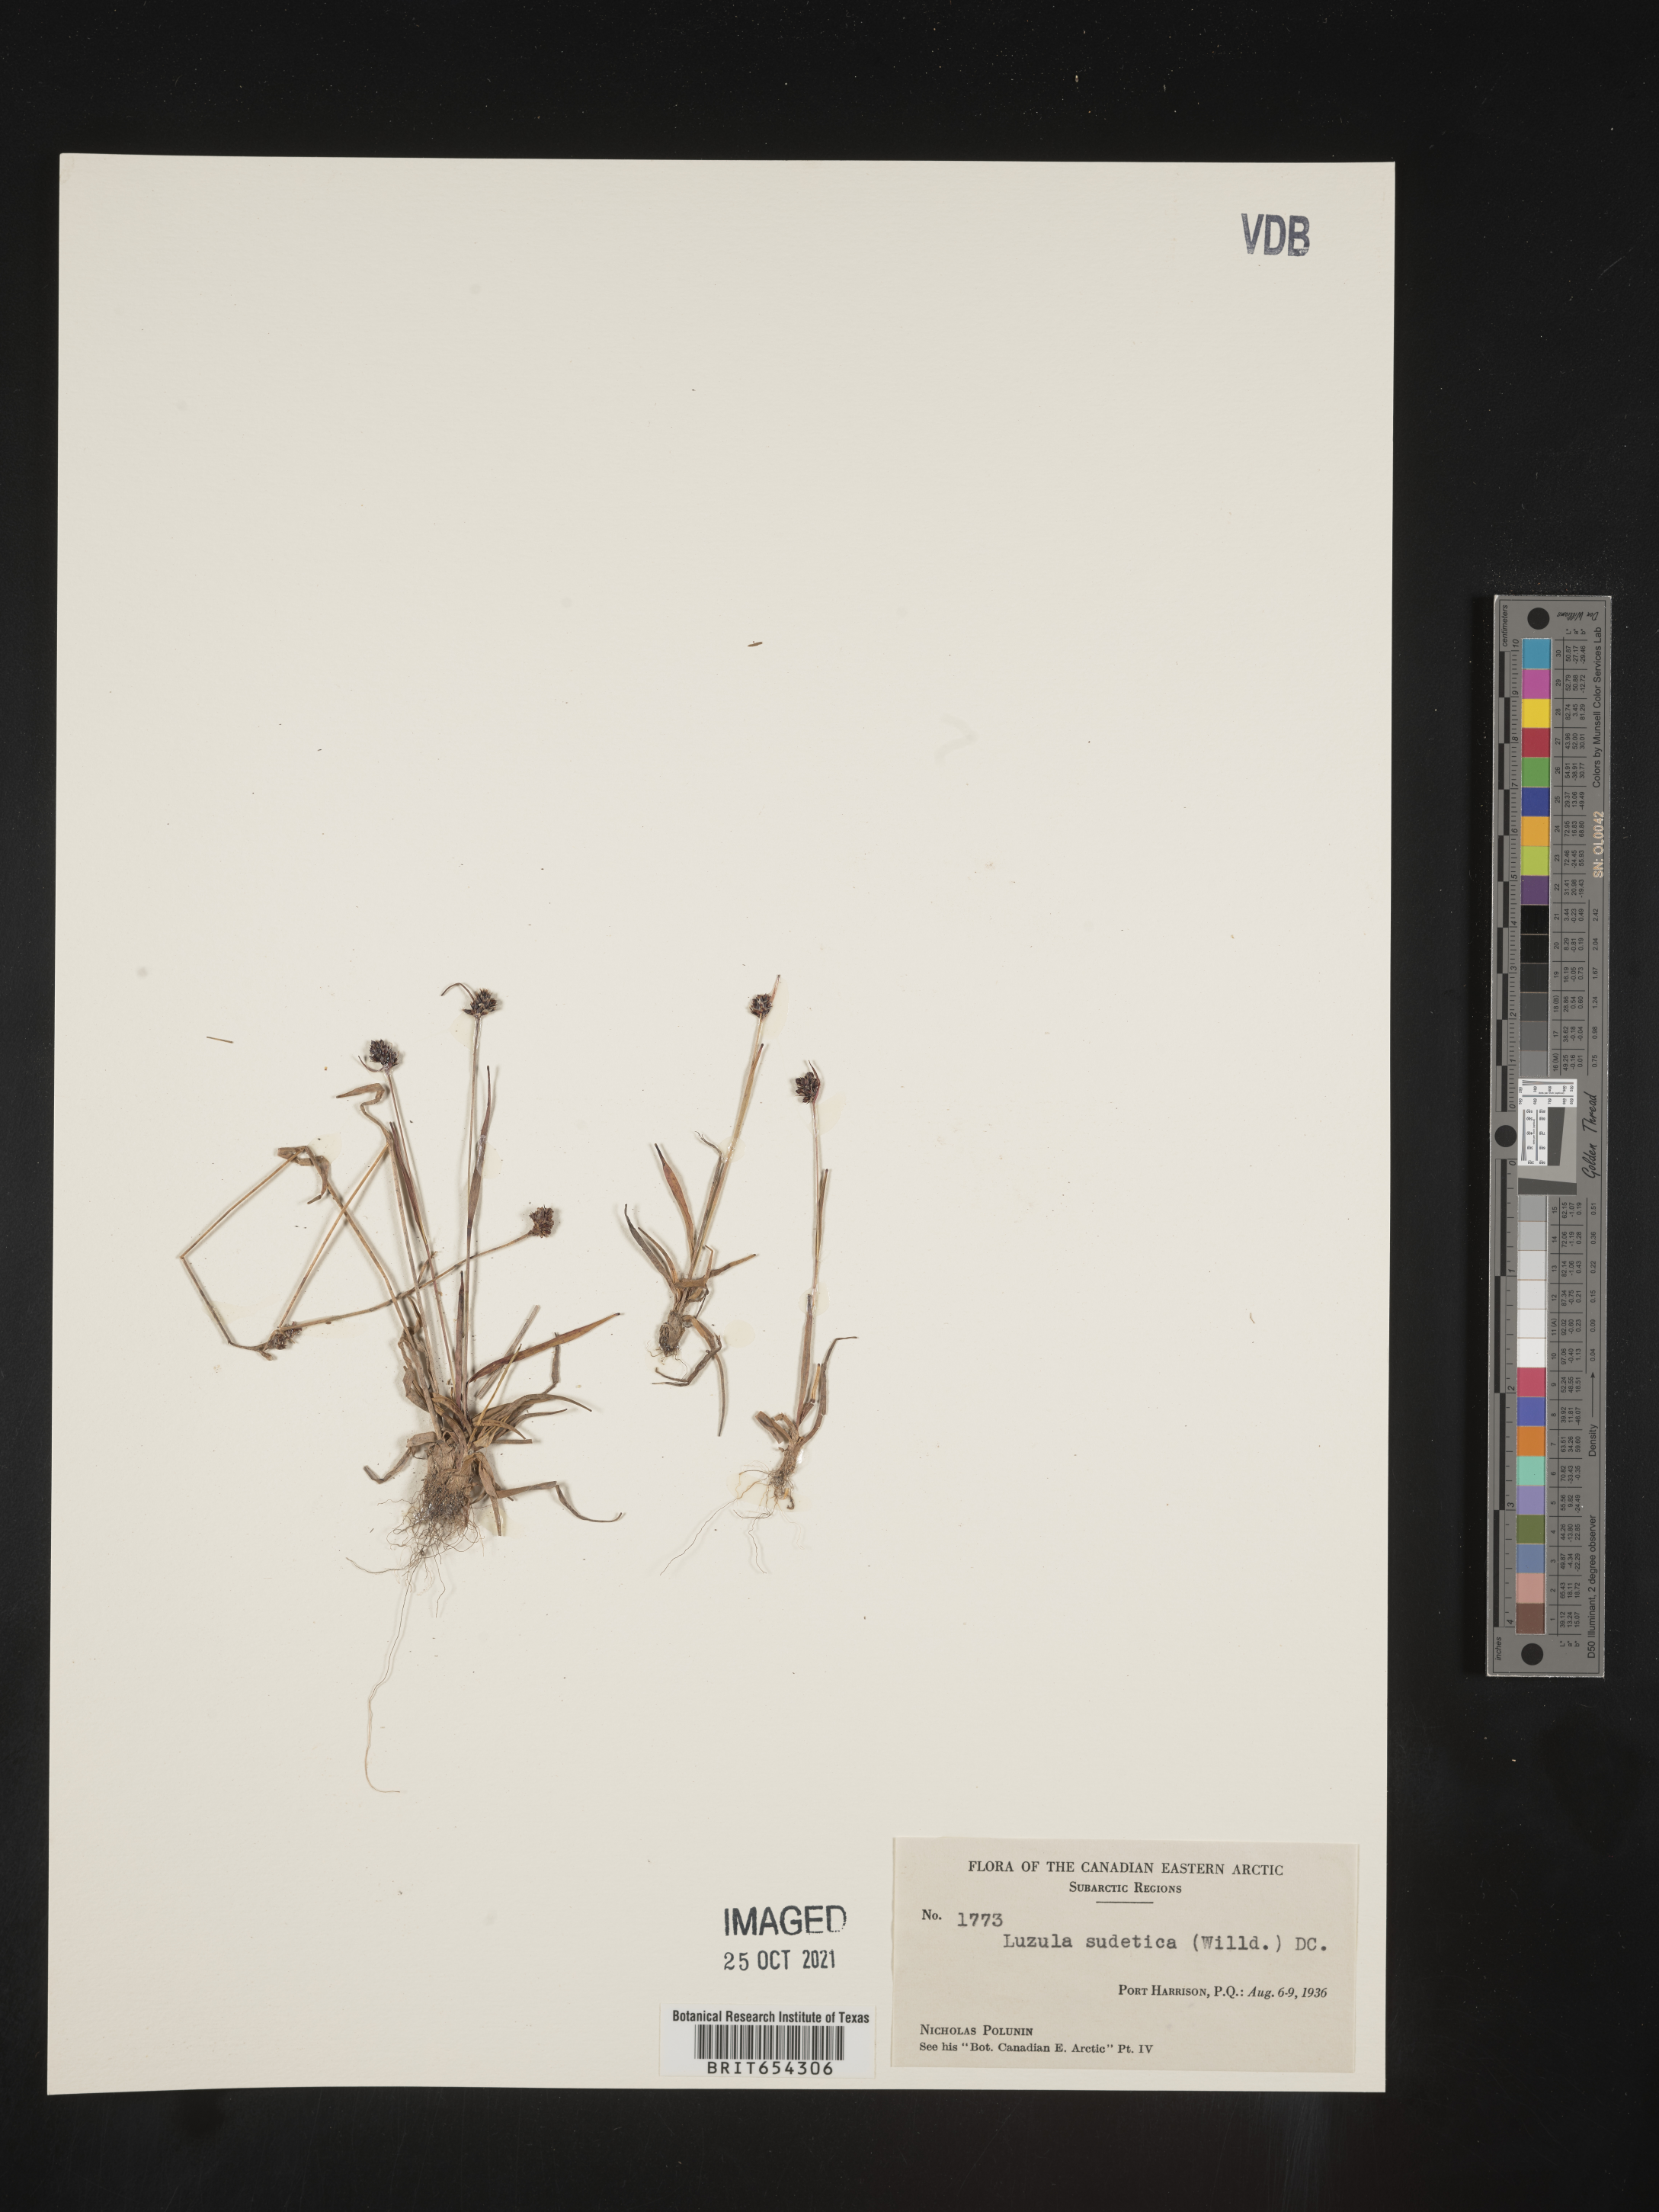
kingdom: Plantae
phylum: Tracheophyta
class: Liliopsida
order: Poales
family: Juncaceae
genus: Luzula
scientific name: Luzula
